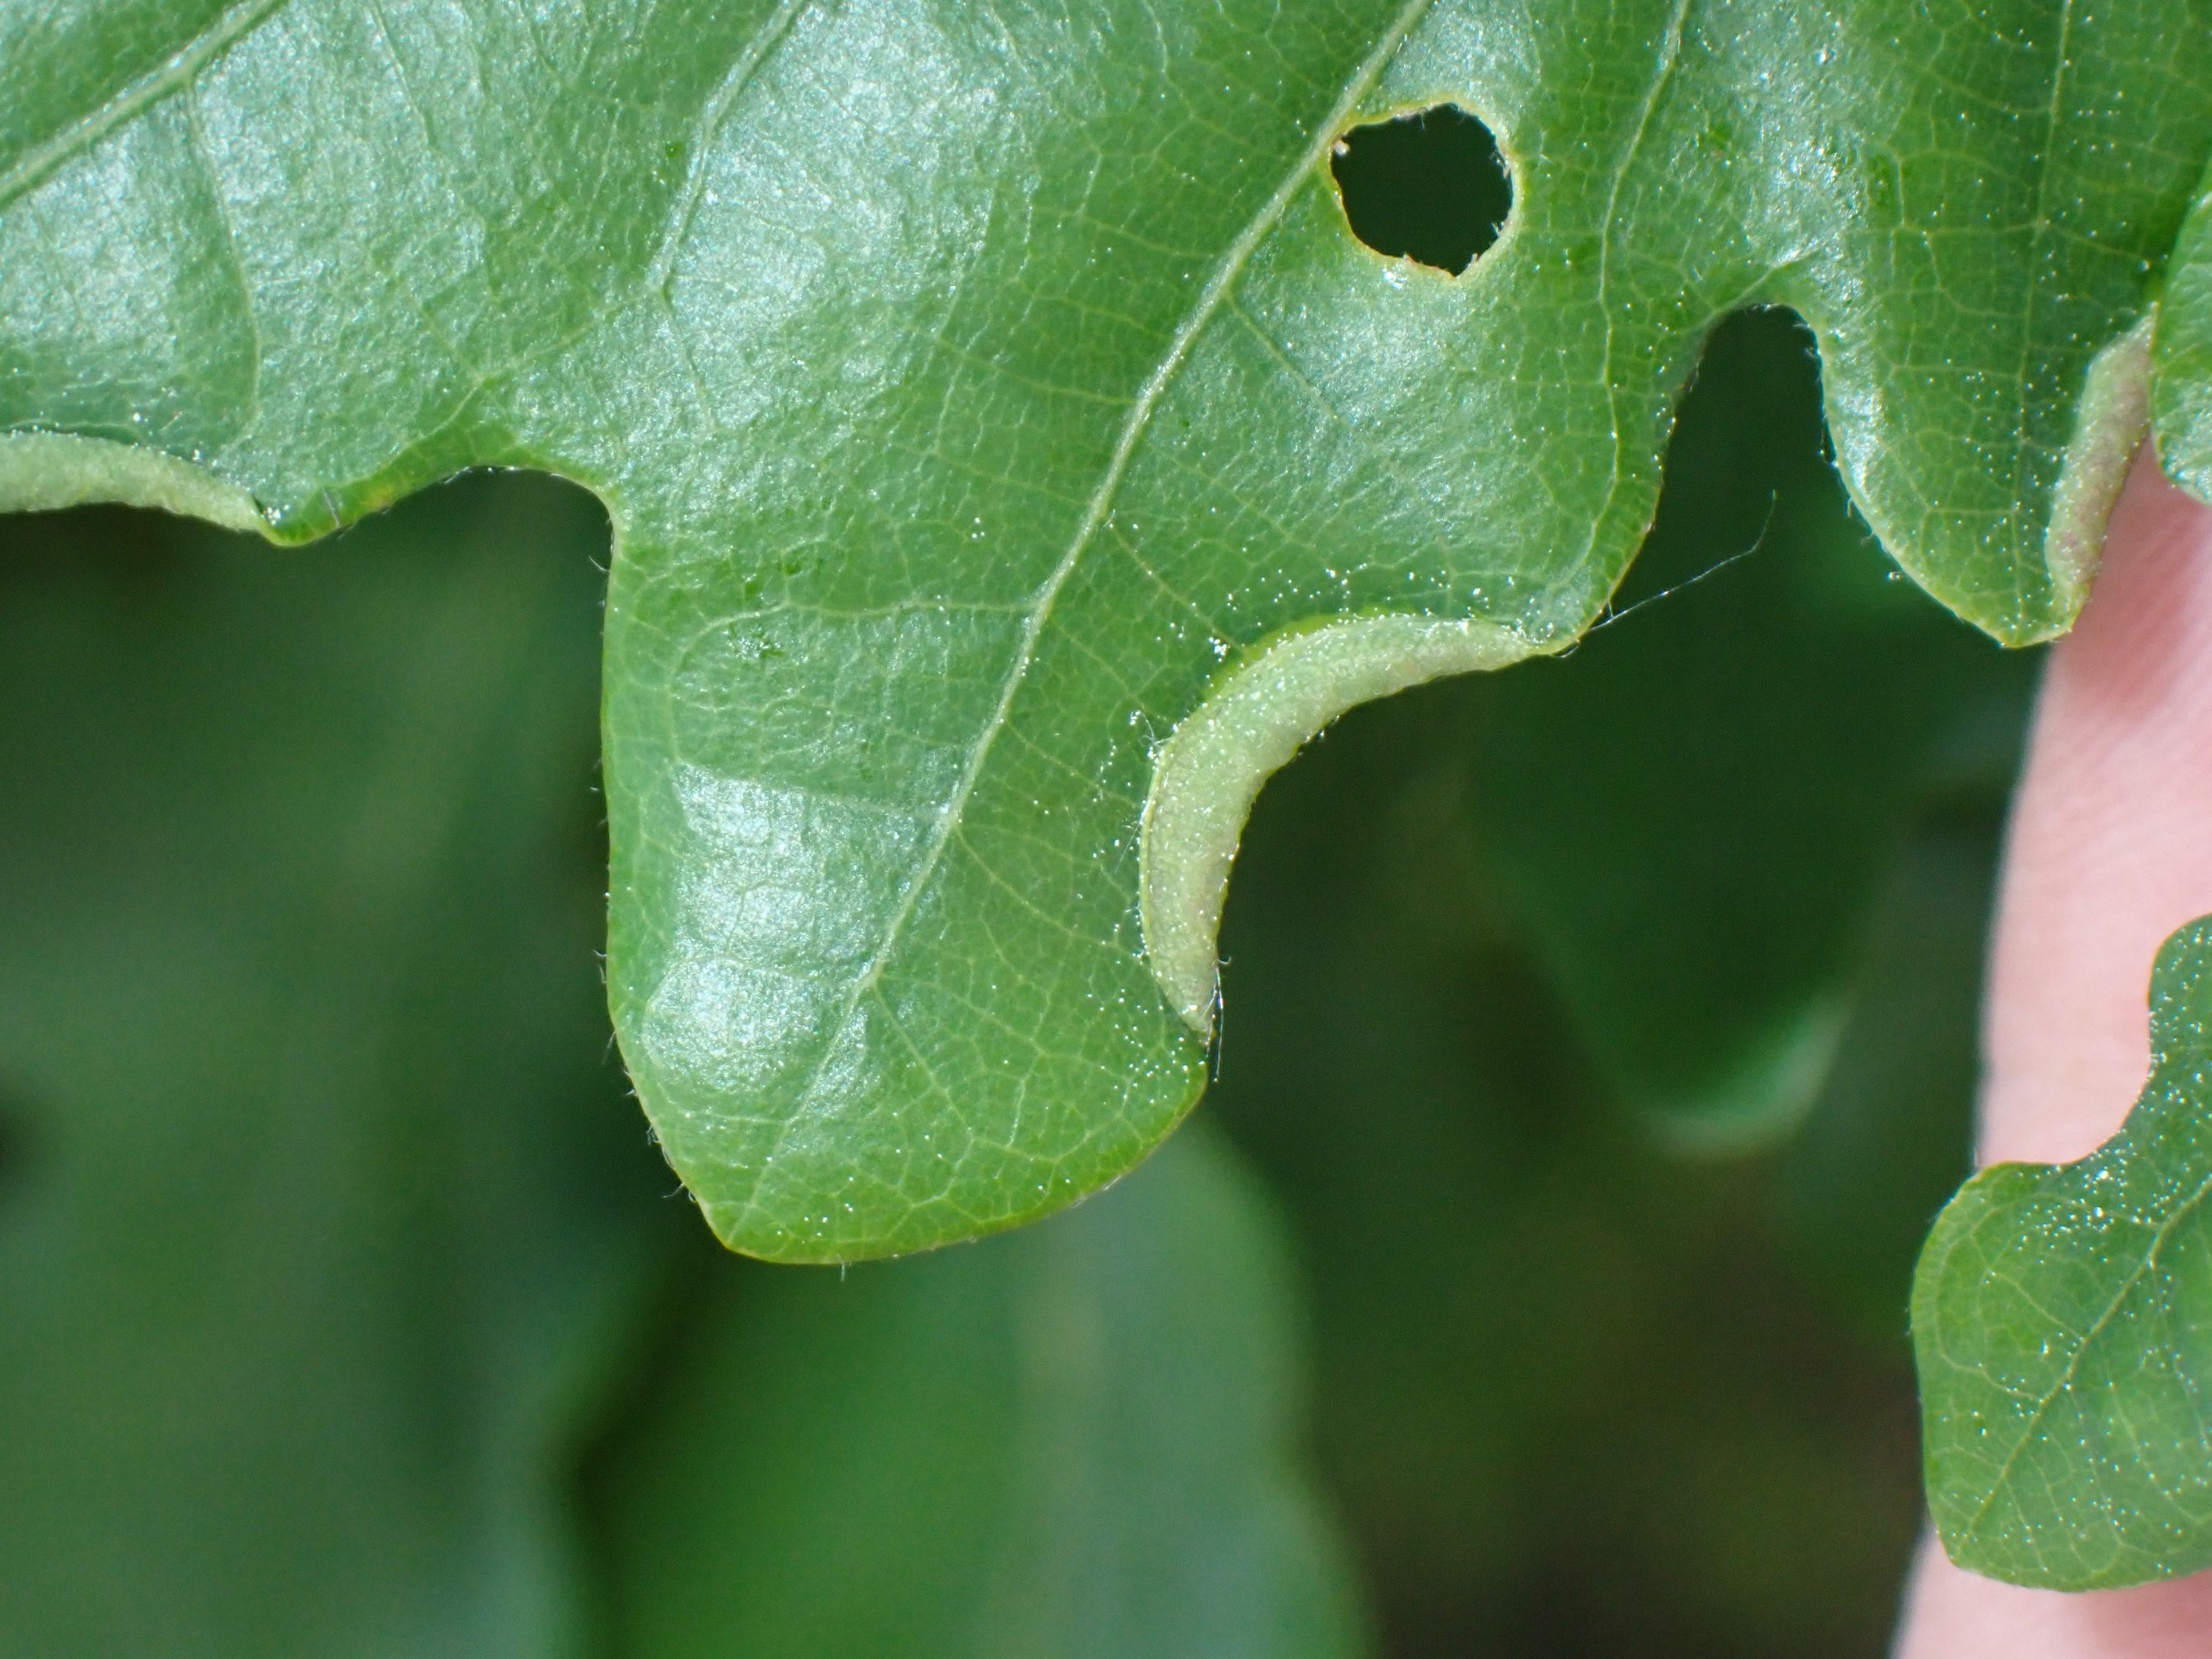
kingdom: Animalia
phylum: Arthropoda
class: Insecta
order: Diptera
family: Cecidomyiidae
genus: Macrodiplosis
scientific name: Macrodiplosis volvens
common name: Egerullegalmyg
